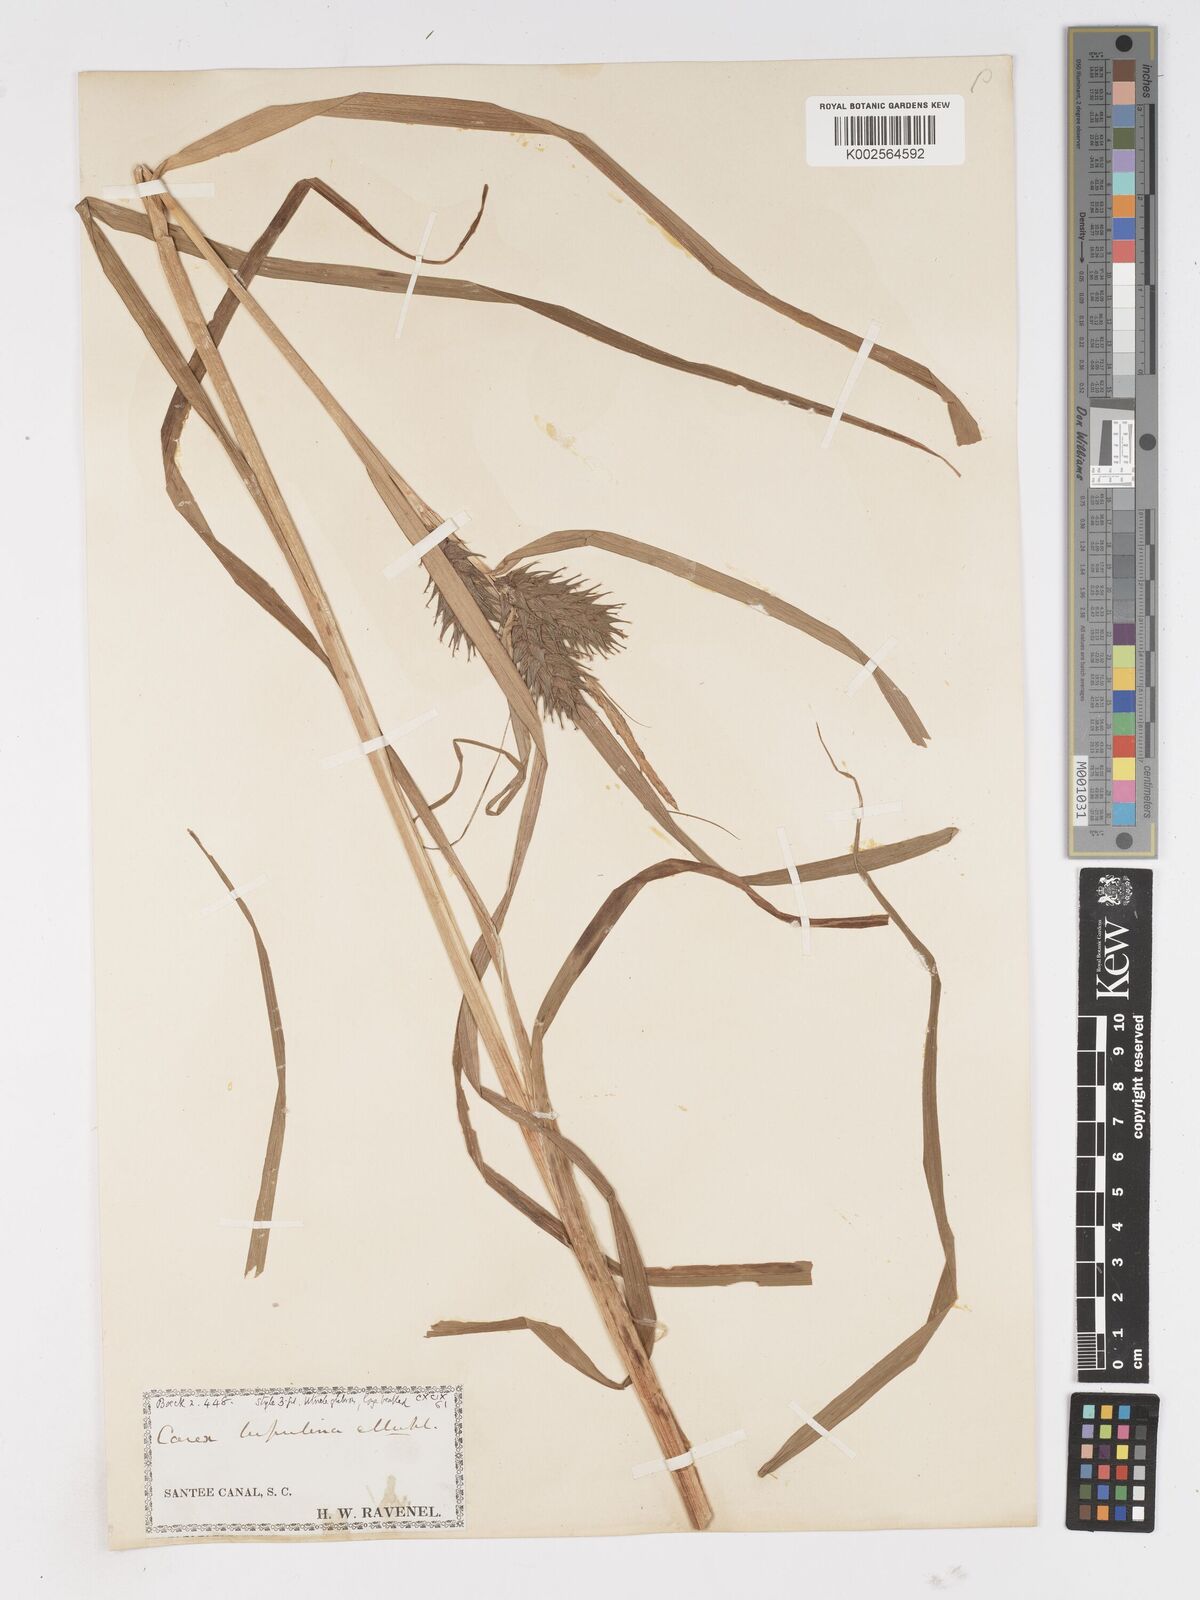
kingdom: Plantae
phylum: Tracheophyta
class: Liliopsida
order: Poales
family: Cyperaceae
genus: Carex
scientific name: Carex lupulina
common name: Hop sedge
